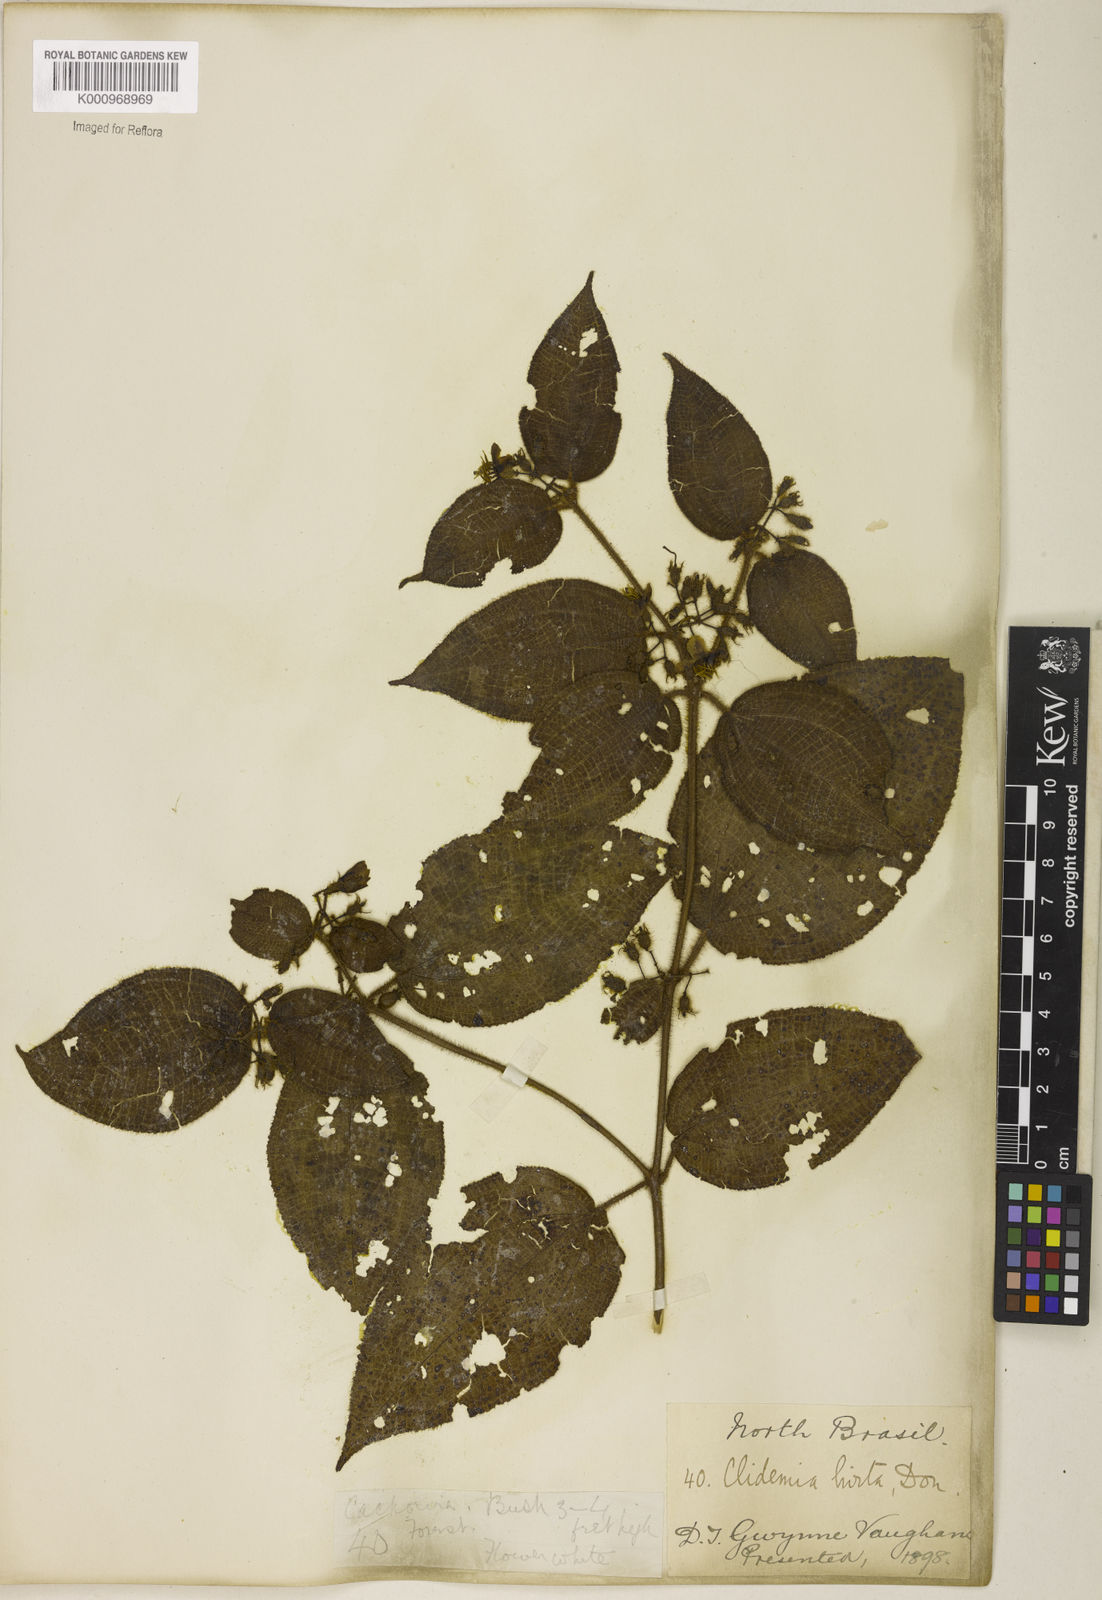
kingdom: Plantae
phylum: Tracheophyta
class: Magnoliopsida
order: Myrtales
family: Melastomataceae
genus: Miconia
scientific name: Miconia crenata
